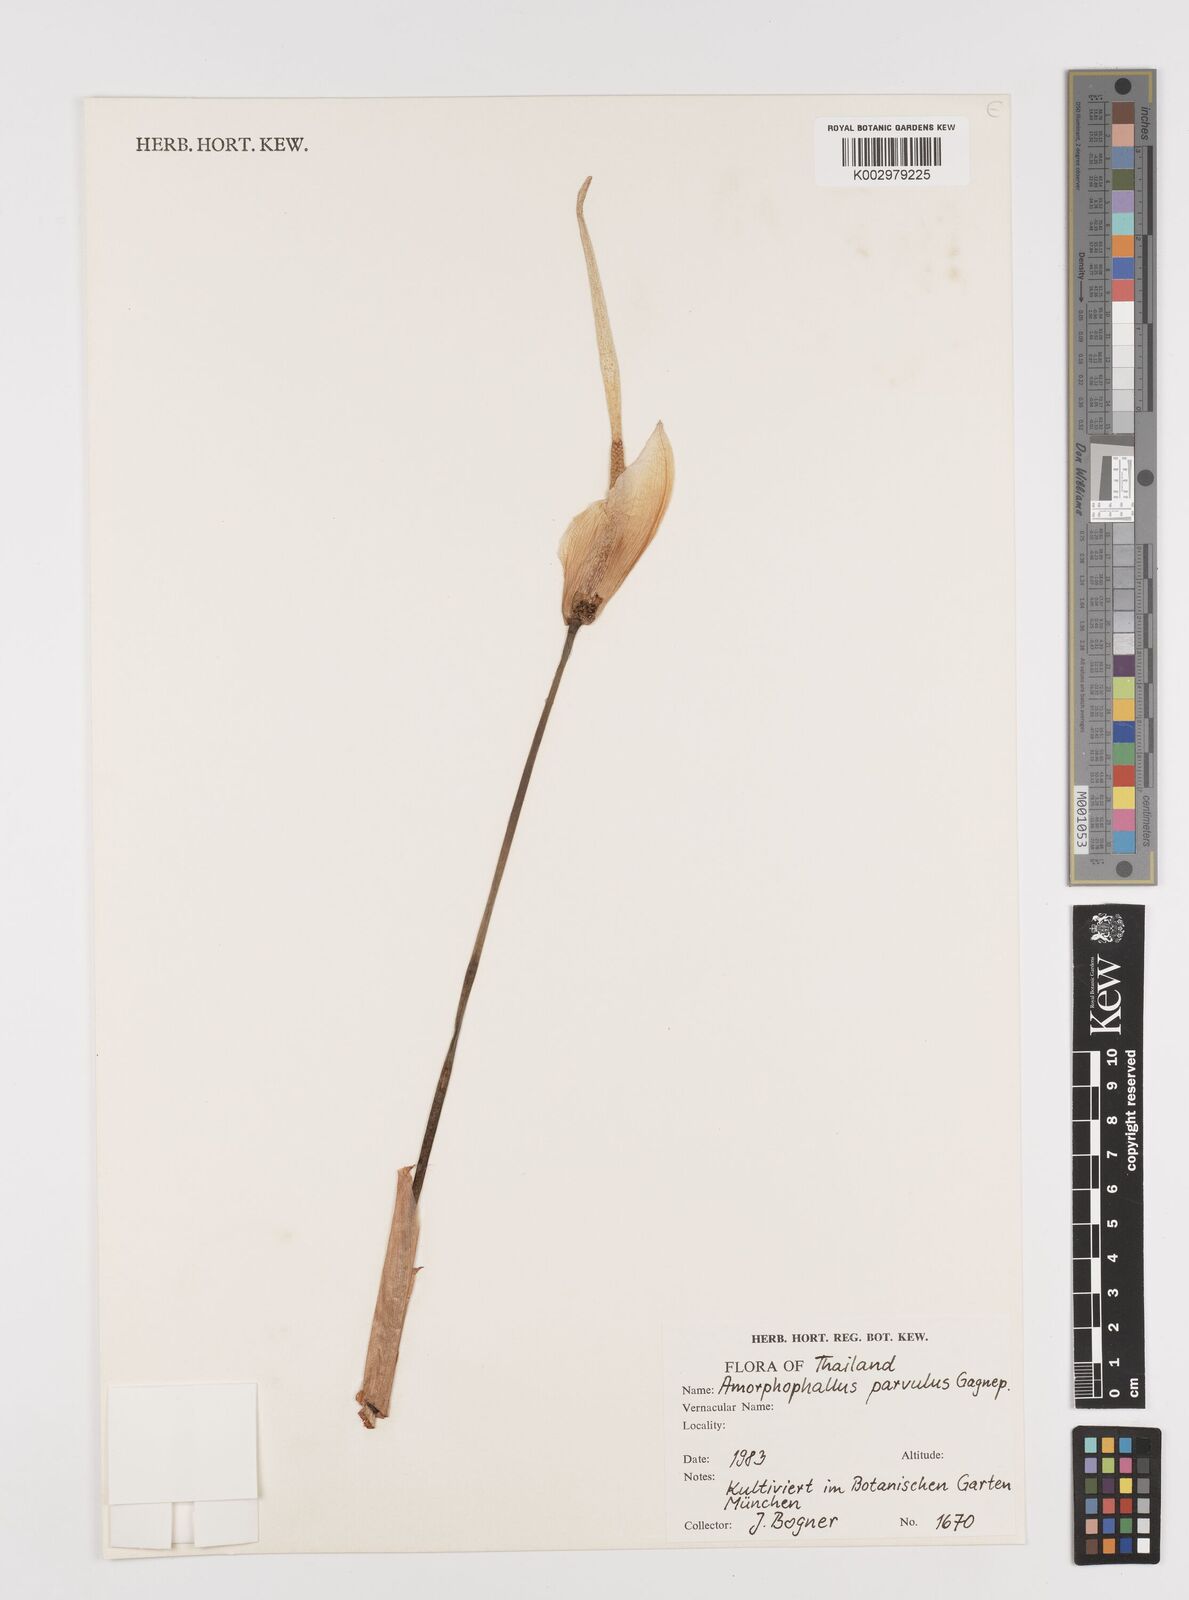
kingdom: Plantae
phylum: Tracheophyta
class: Liliopsida
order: Alismatales
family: Araceae
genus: Amorphophallus
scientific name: Amorphophallus harmandii
